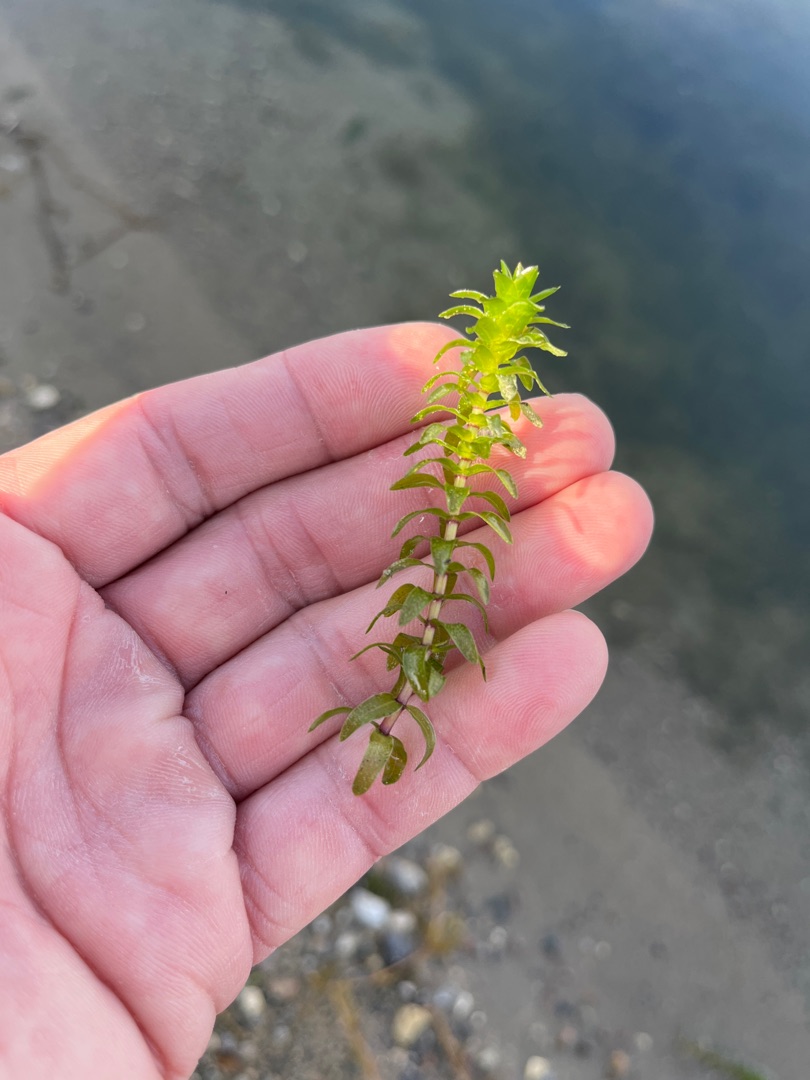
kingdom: Plantae
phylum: Tracheophyta
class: Liliopsida
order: Alismatales
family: Hydrocharitaceae
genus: Elodea
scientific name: Elodea canadensis
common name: Vandpest
